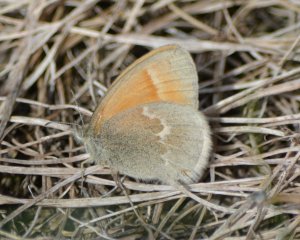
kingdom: Animalia
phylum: Arthropoda
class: Insecta
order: Lepidoptera
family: Nymphalidae
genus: Coenonympha
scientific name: Coenonympha tullia
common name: Large Heath
